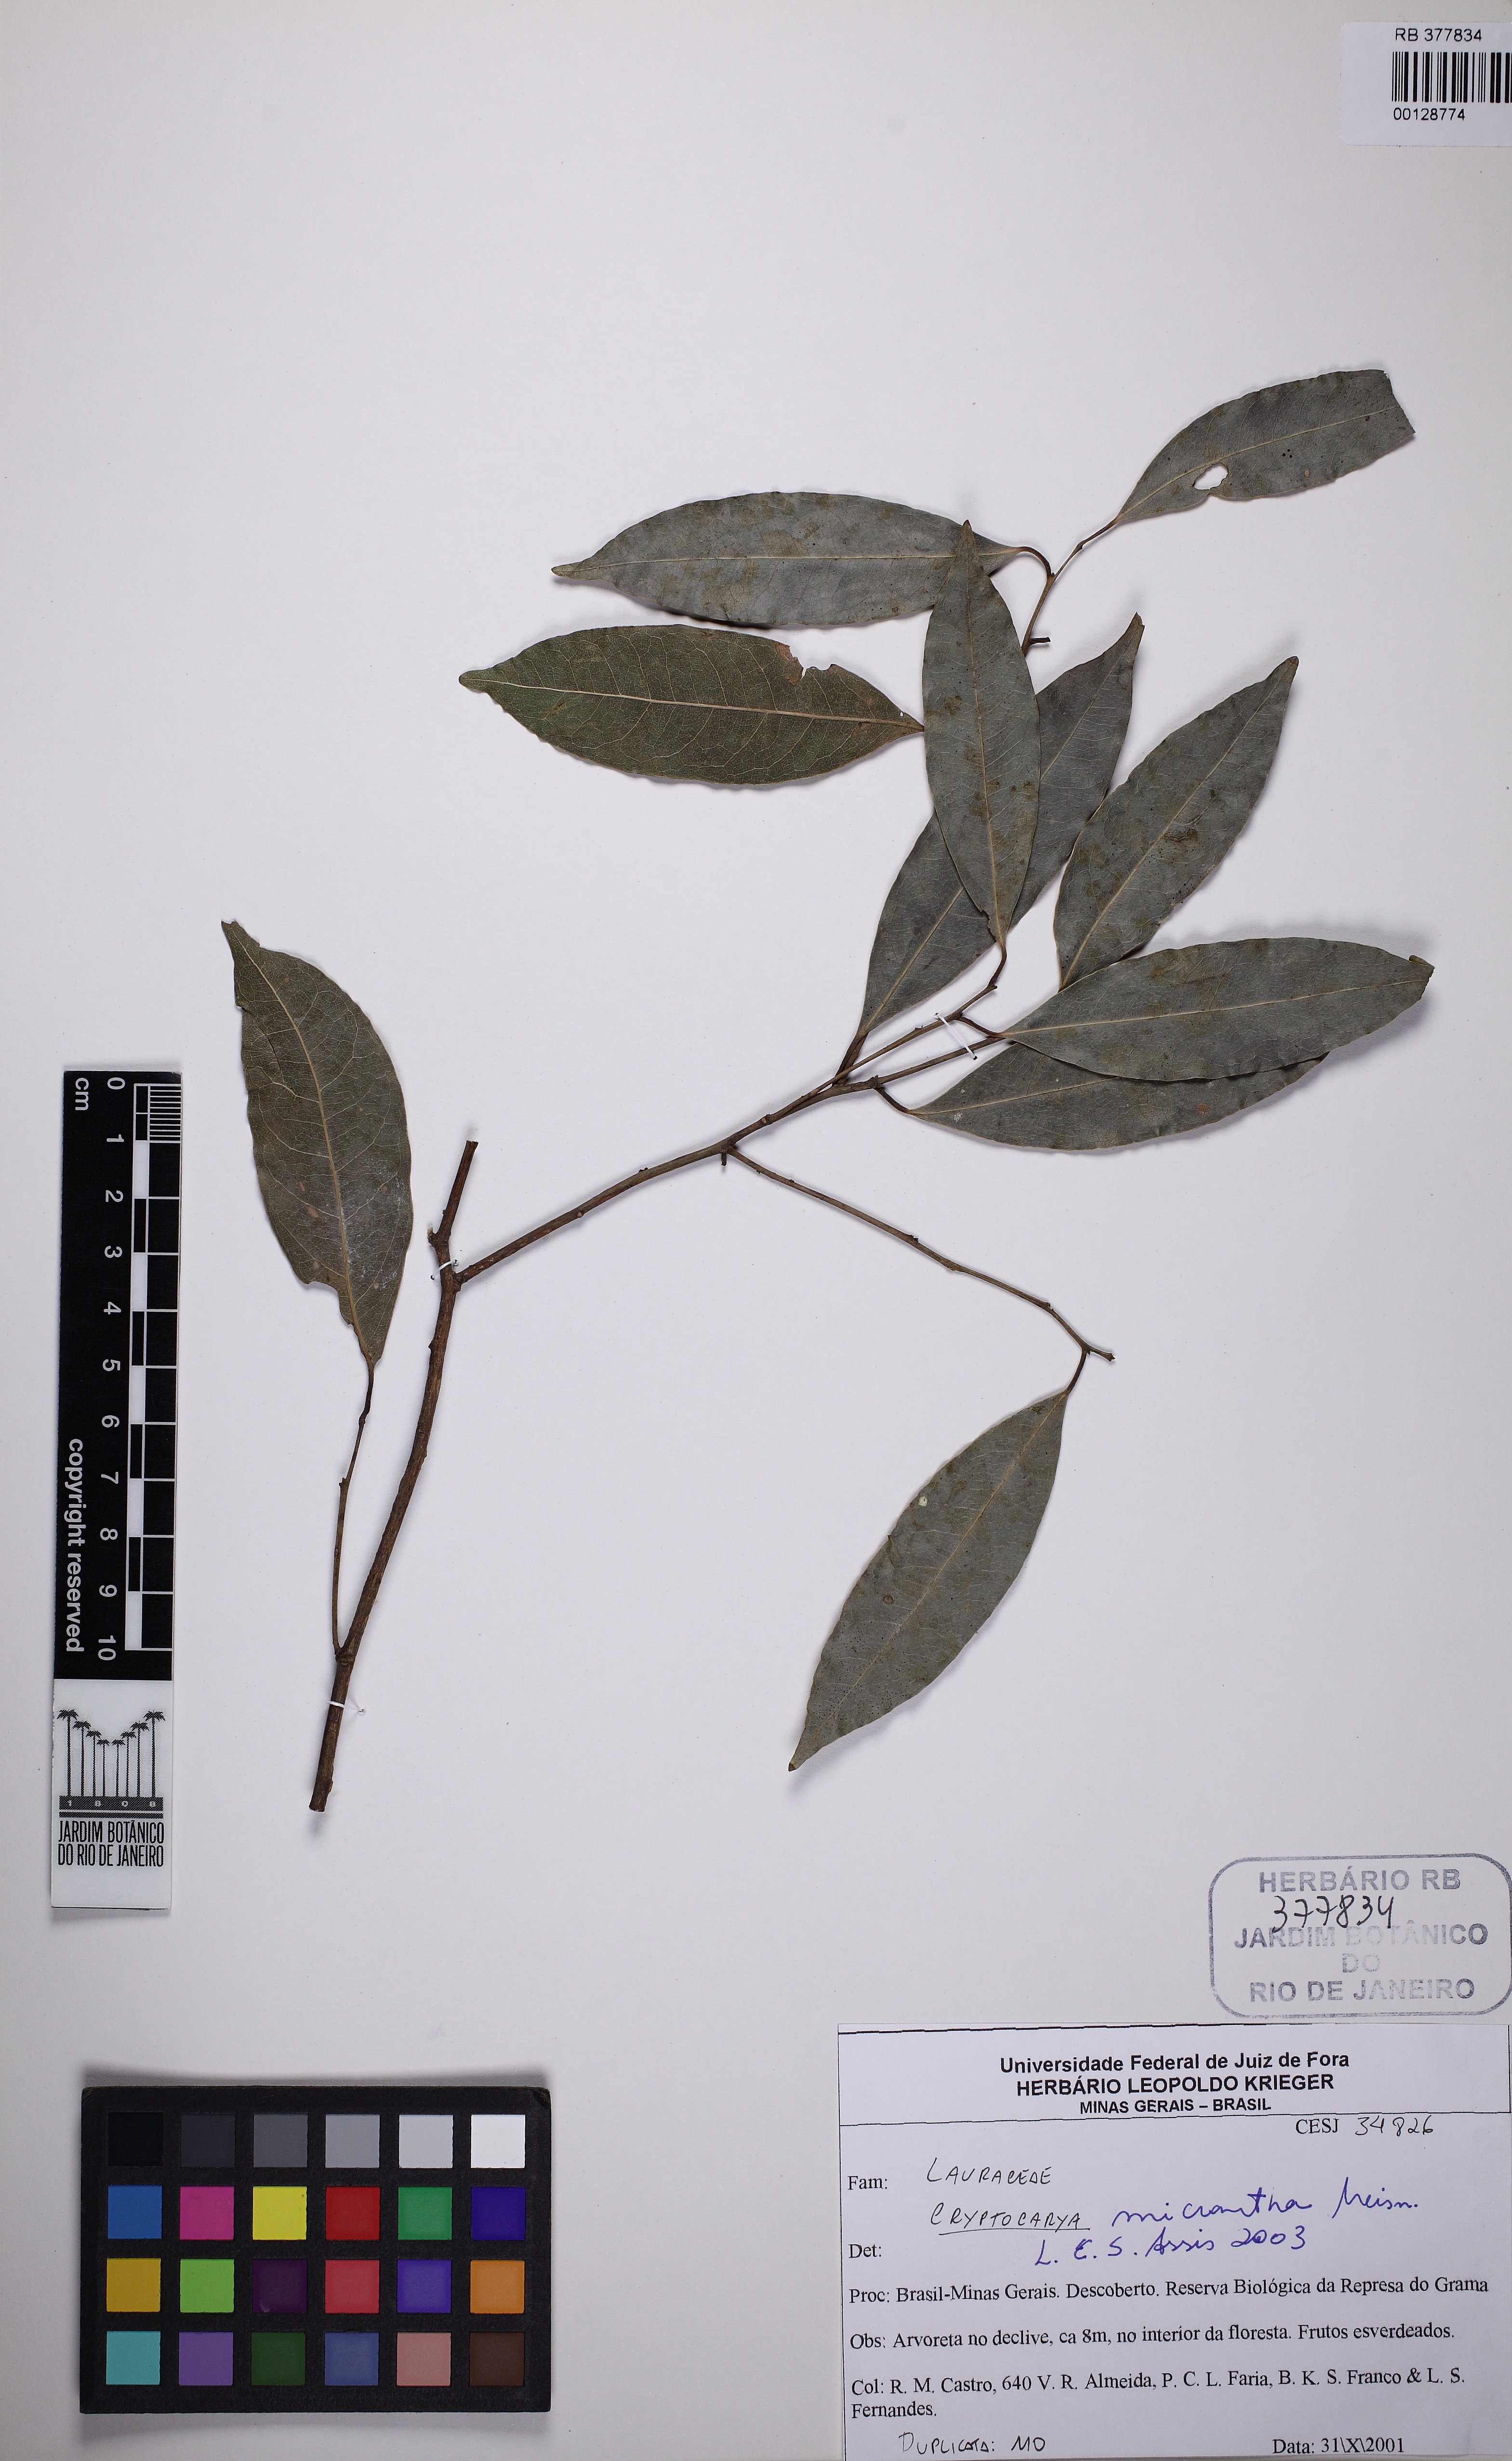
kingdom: Plantae
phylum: Tracheophyta
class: Magnoliopsida
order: Laurales
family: Lauraceae
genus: Cryptocarya
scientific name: Cryptocarya micrantha
